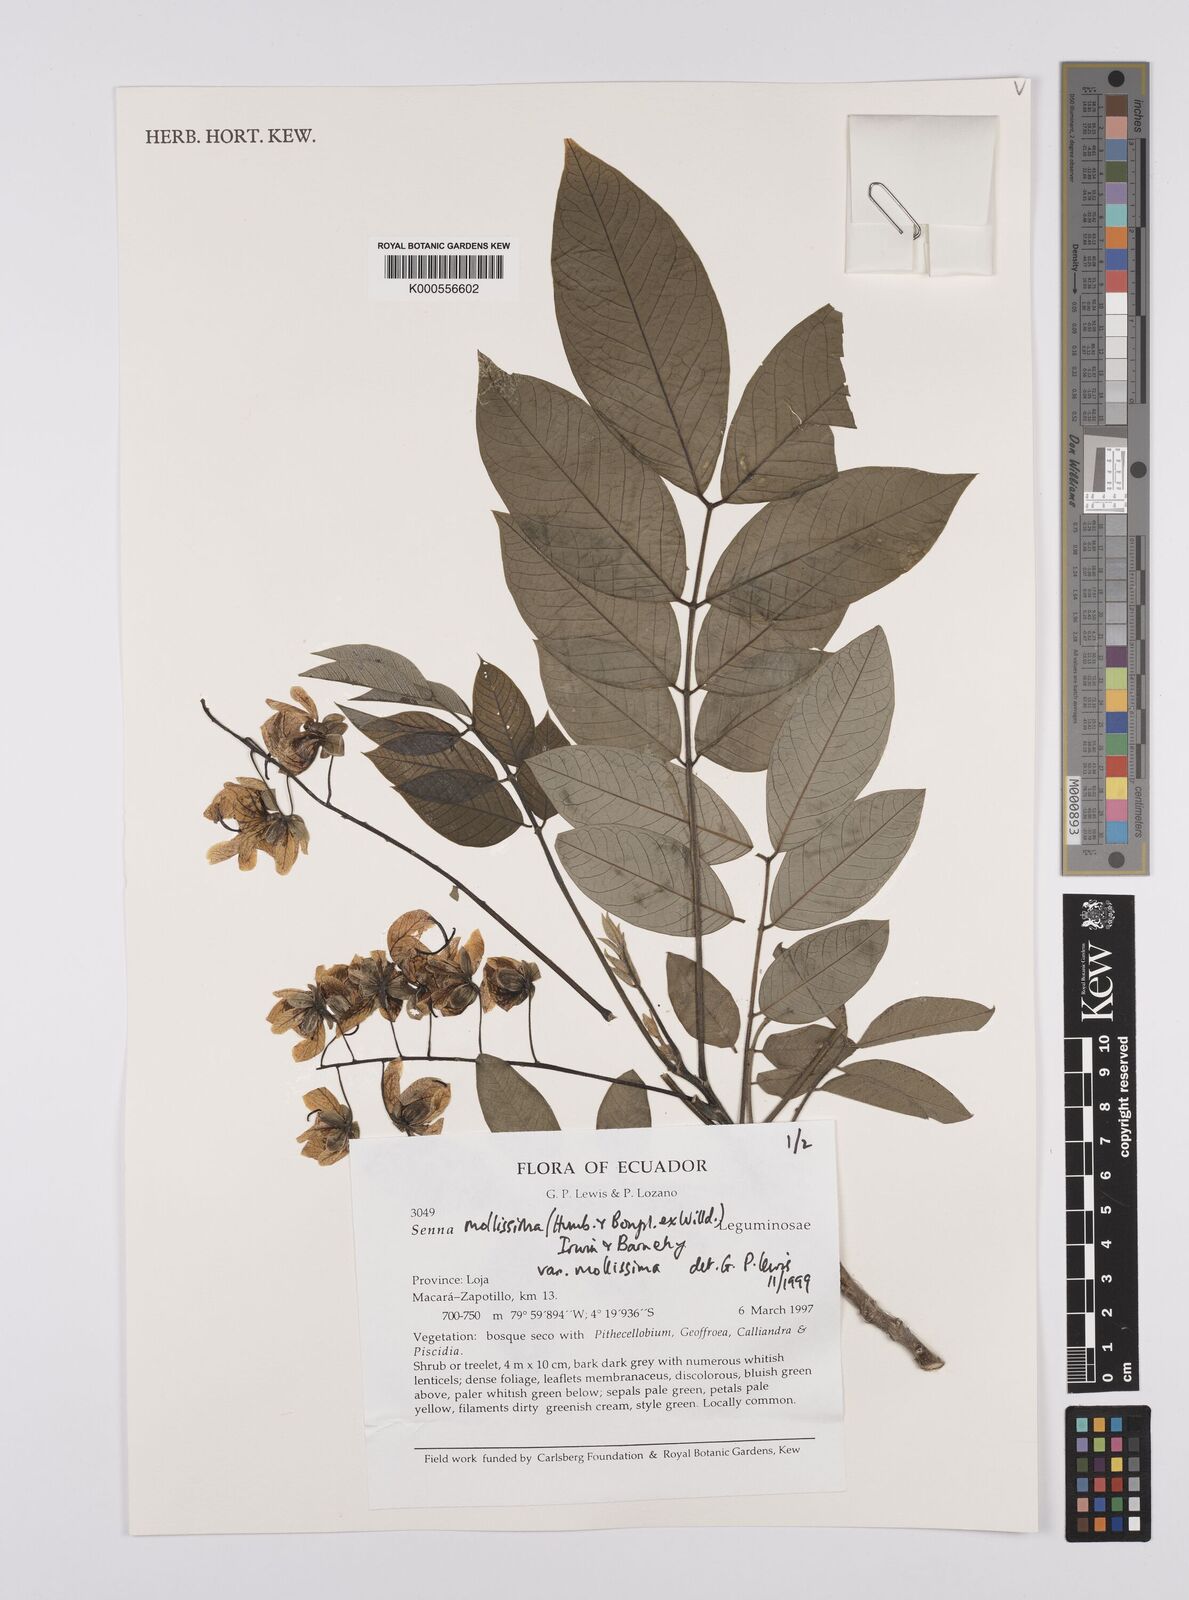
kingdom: Plantae
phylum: Tracheophyta
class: Magnoliopsida
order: Fabales
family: Fabaceae
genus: Senna
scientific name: Senna mollissima
